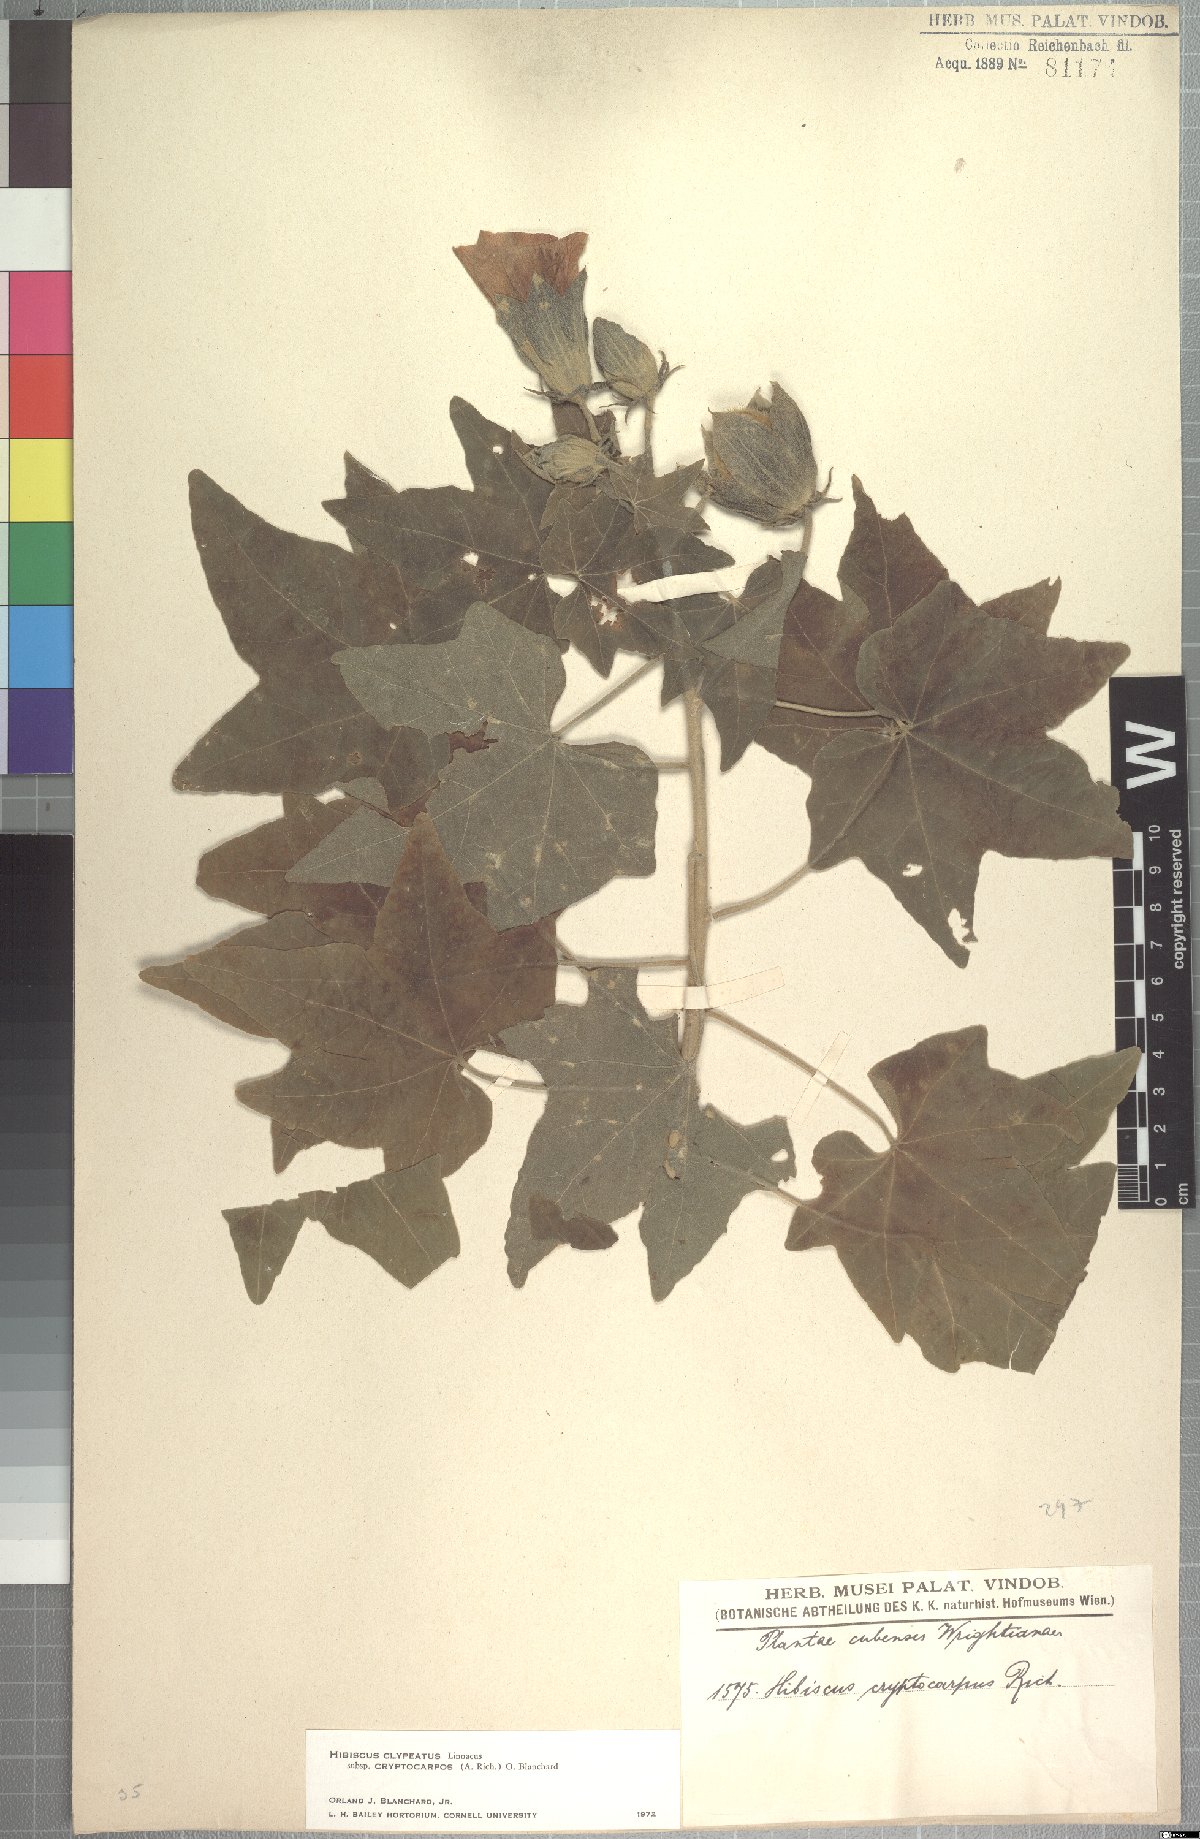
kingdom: Plantae
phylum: Tracheophyta
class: Magnoliopsida
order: Malvales
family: Malvaceae
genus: Hibiscus
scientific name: Hibiscus clypeatus
